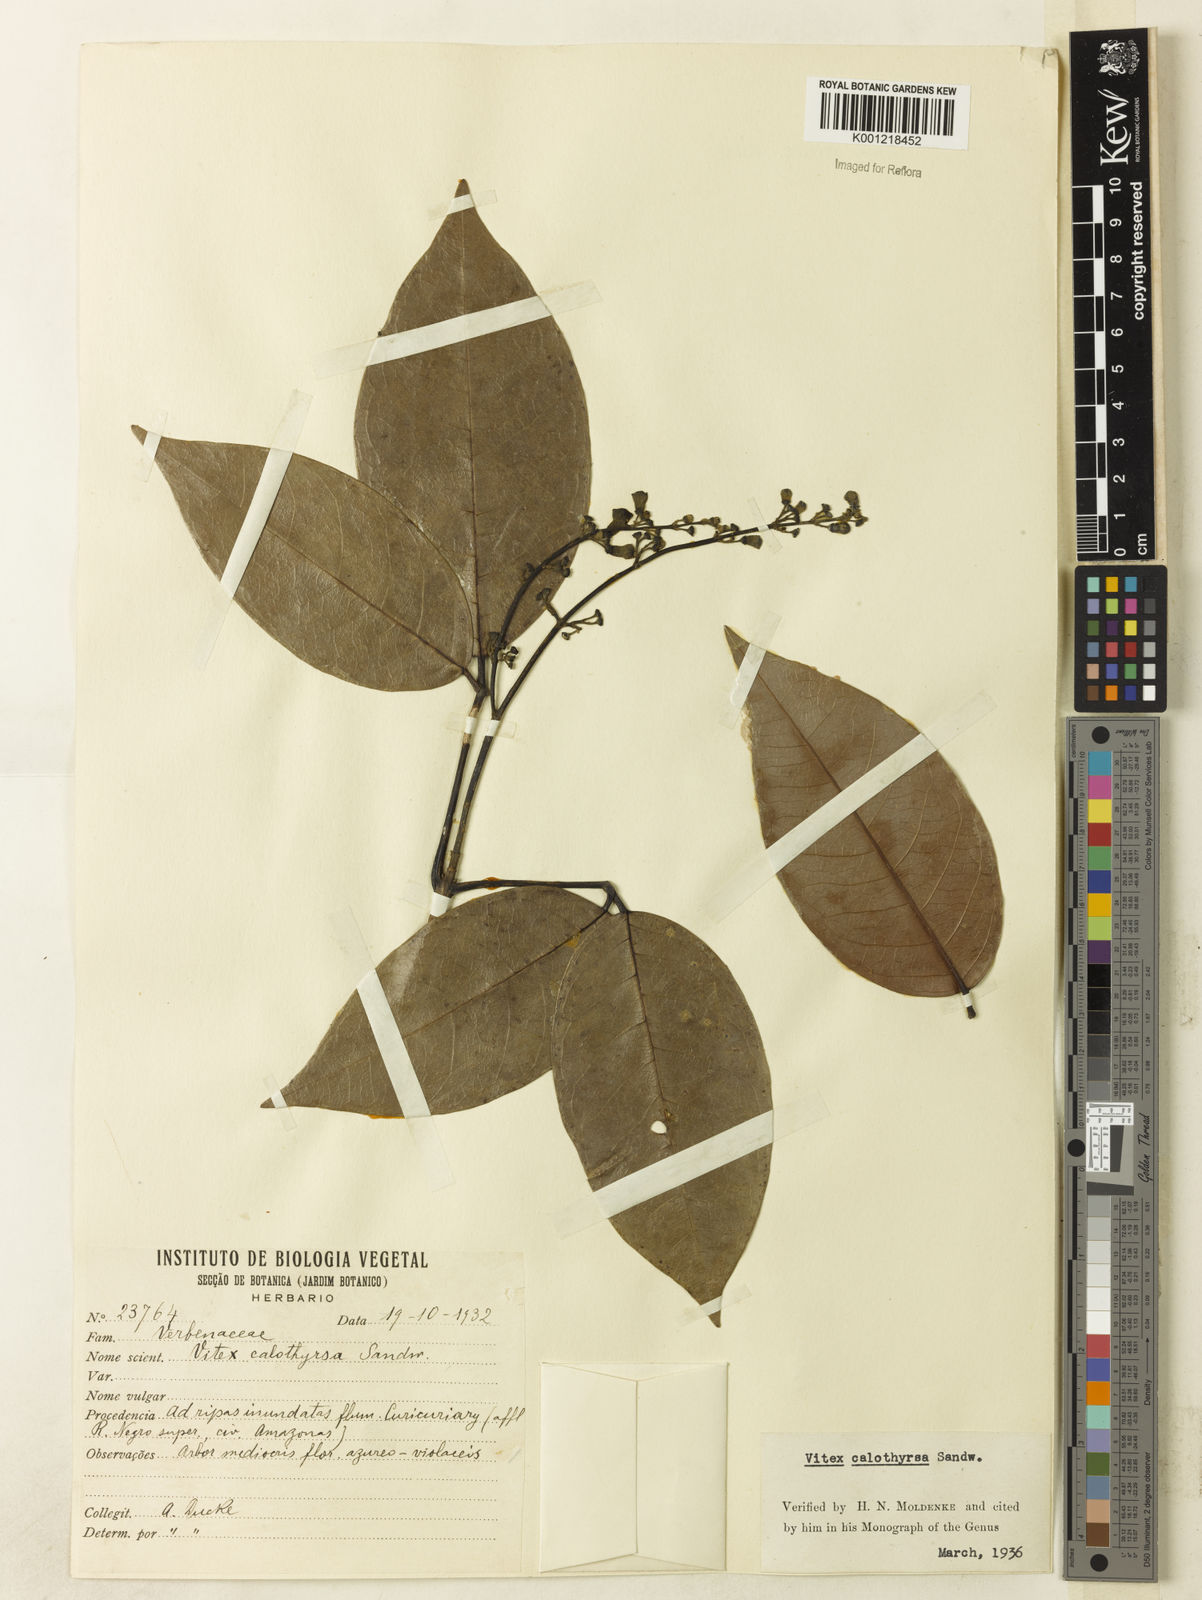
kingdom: Plantae
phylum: Tracheophyta
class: Magnoliopsida
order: Lamiales
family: Lamiaceae
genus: Vitex
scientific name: Vitex calothyrsa
